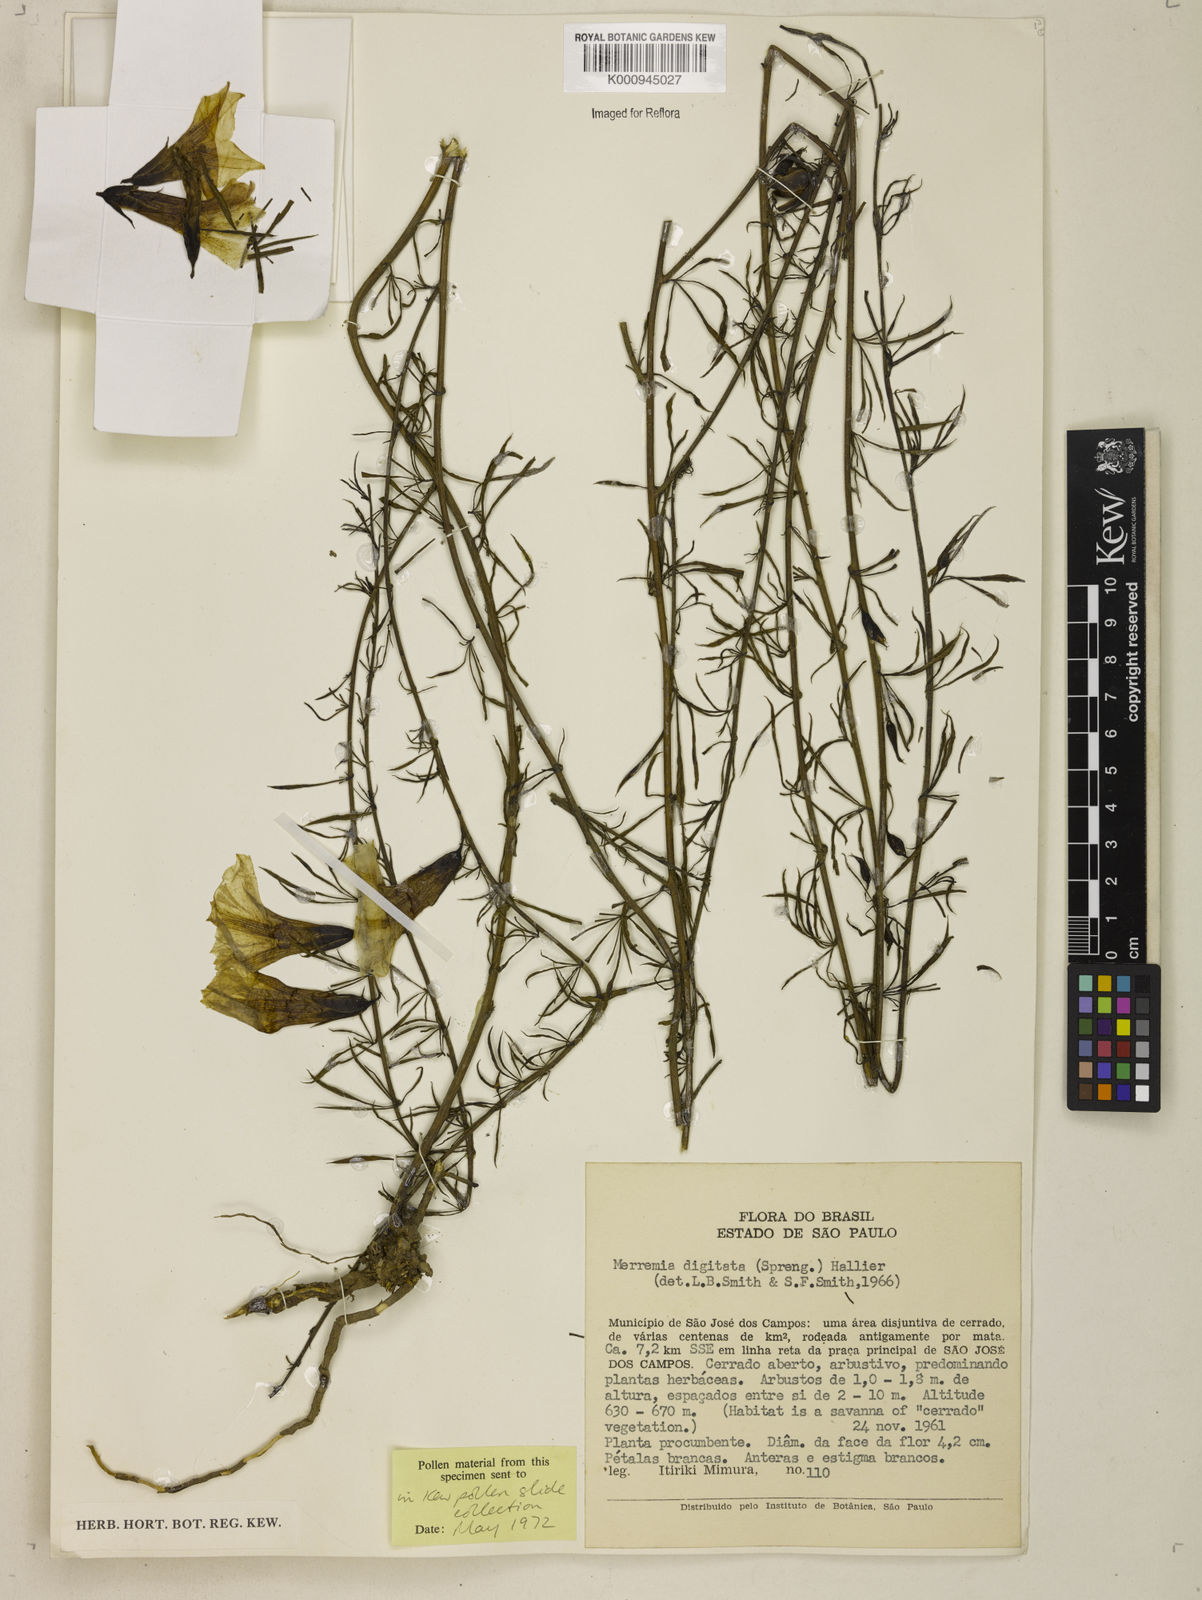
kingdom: Plantae
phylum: Tracheophyta
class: Magnoliopsida
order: Solanales
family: Convolvulaceae
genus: Distimake
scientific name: Distimake digitatus
